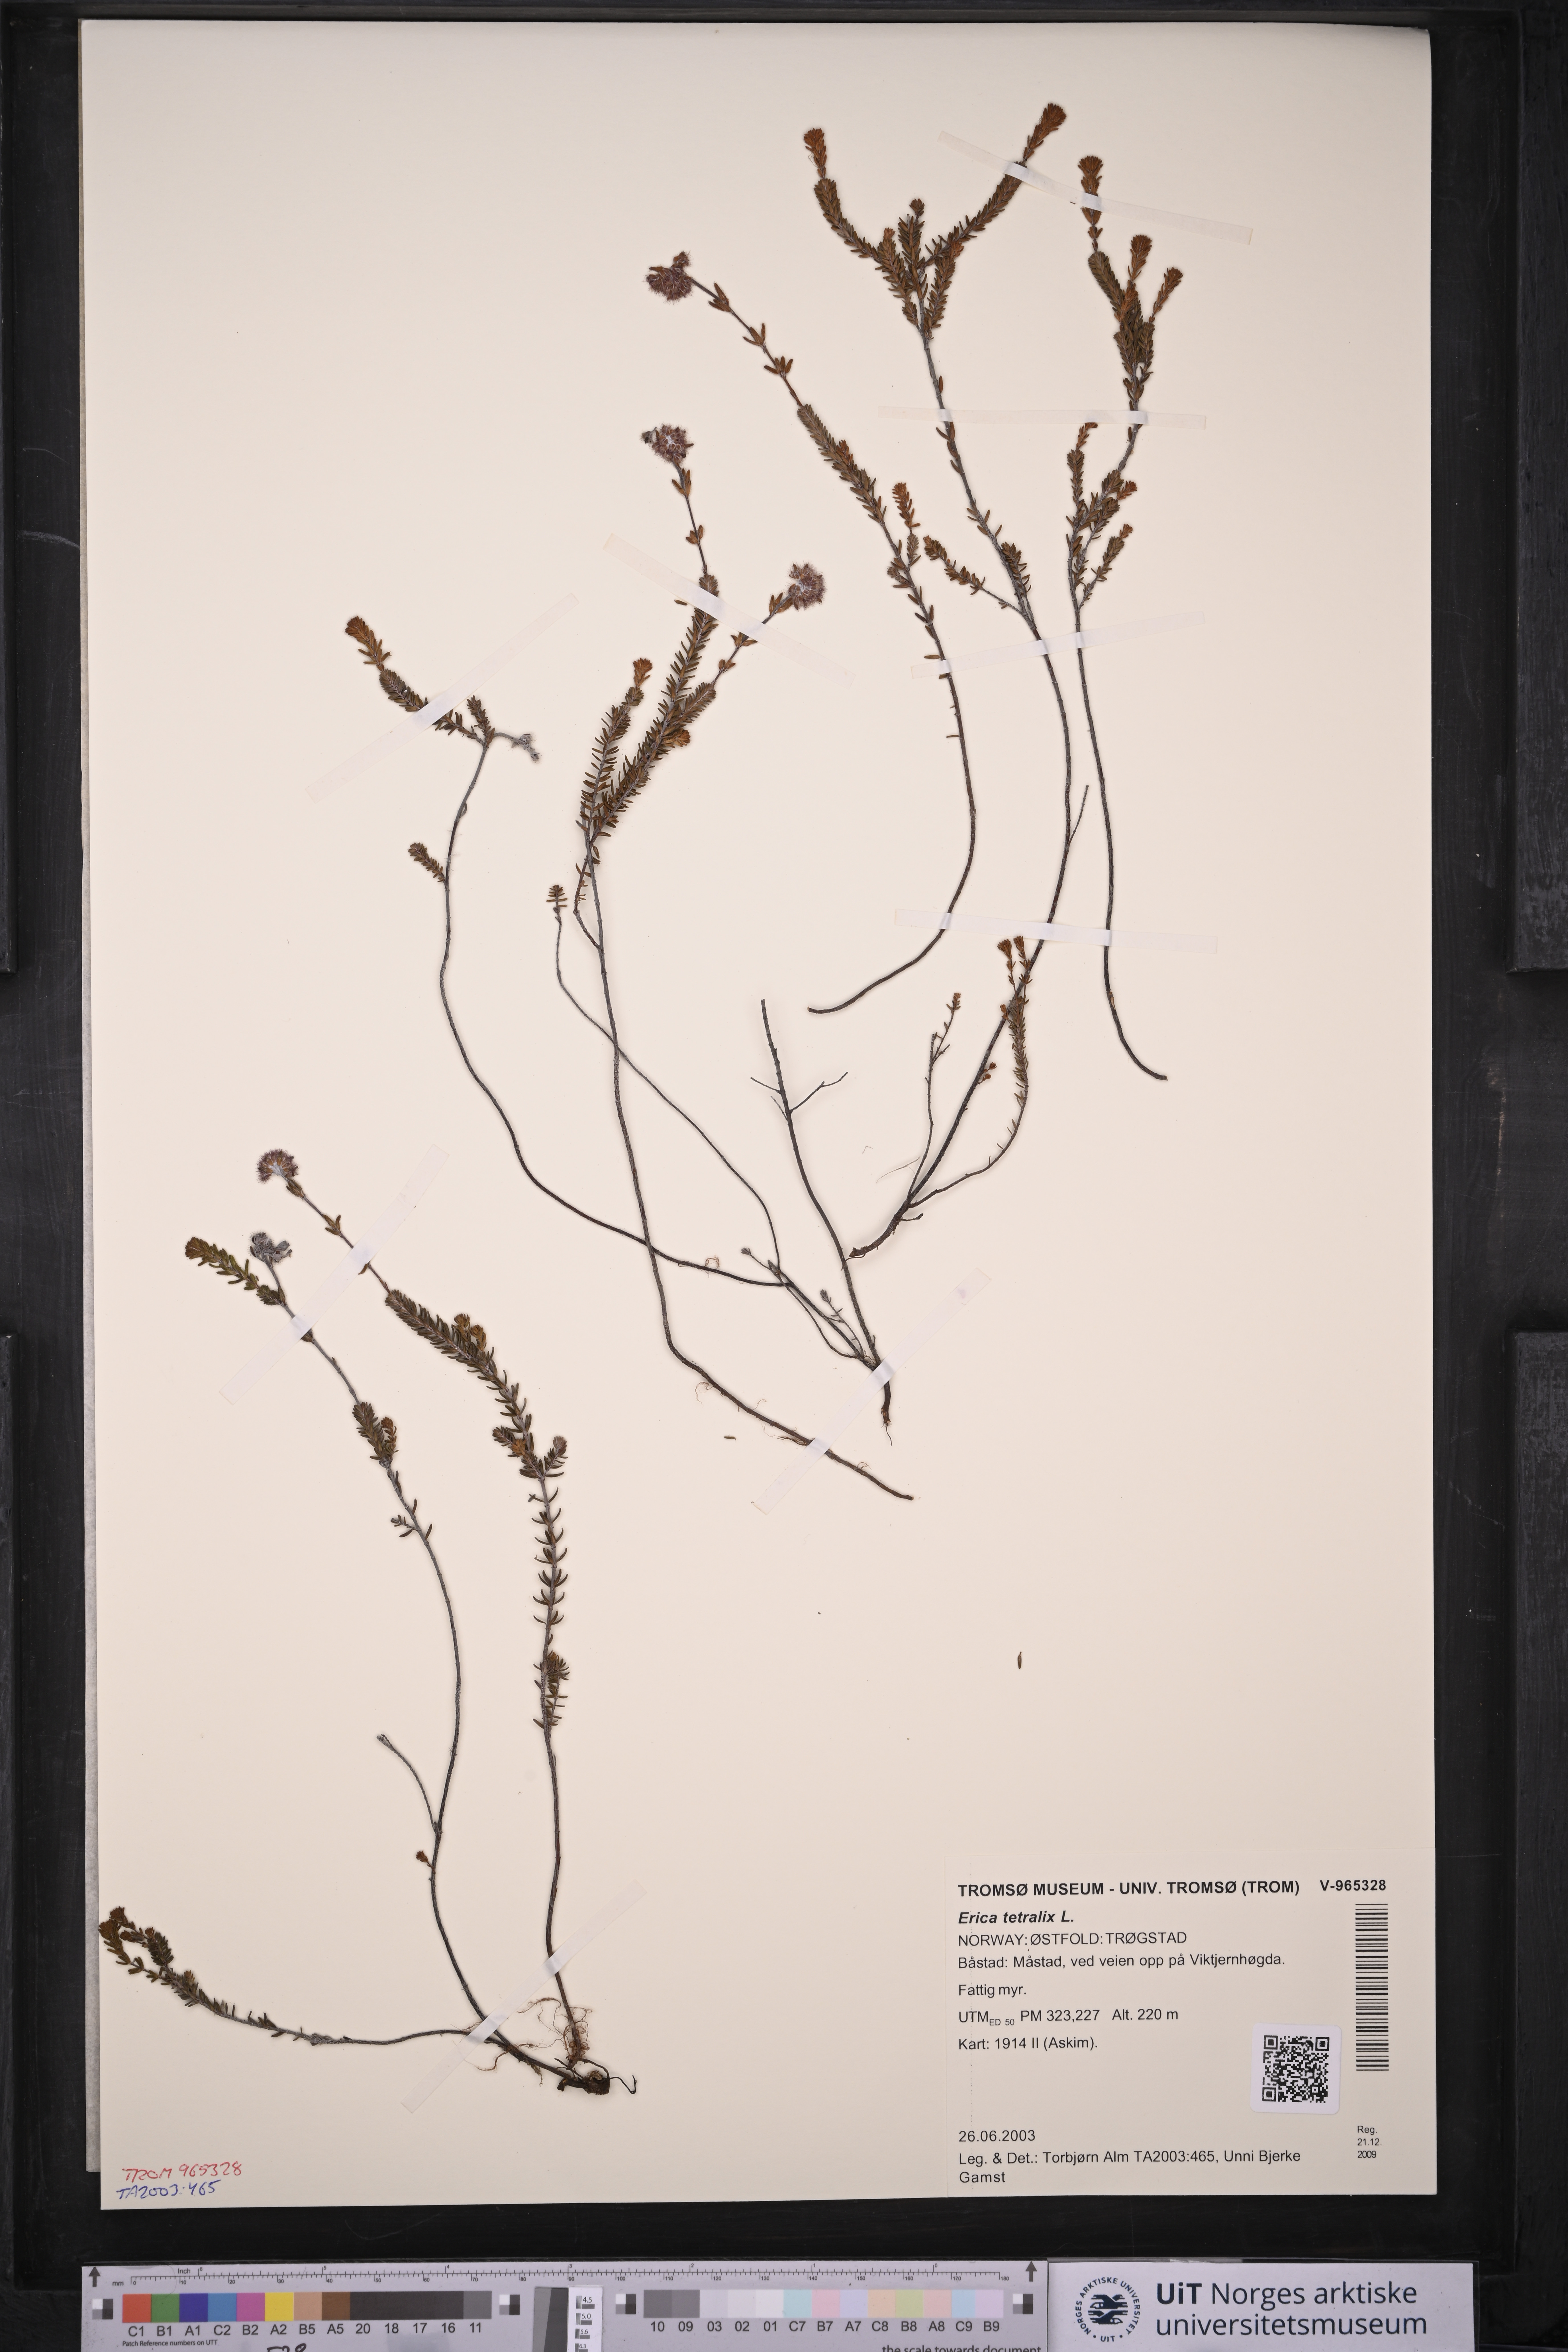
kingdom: Plantae
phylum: Tracheophyta
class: Magnoliopsida
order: Ericales
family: Ericaceae
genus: Erica
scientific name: Erica tetralix
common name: Cross-leaved heath
